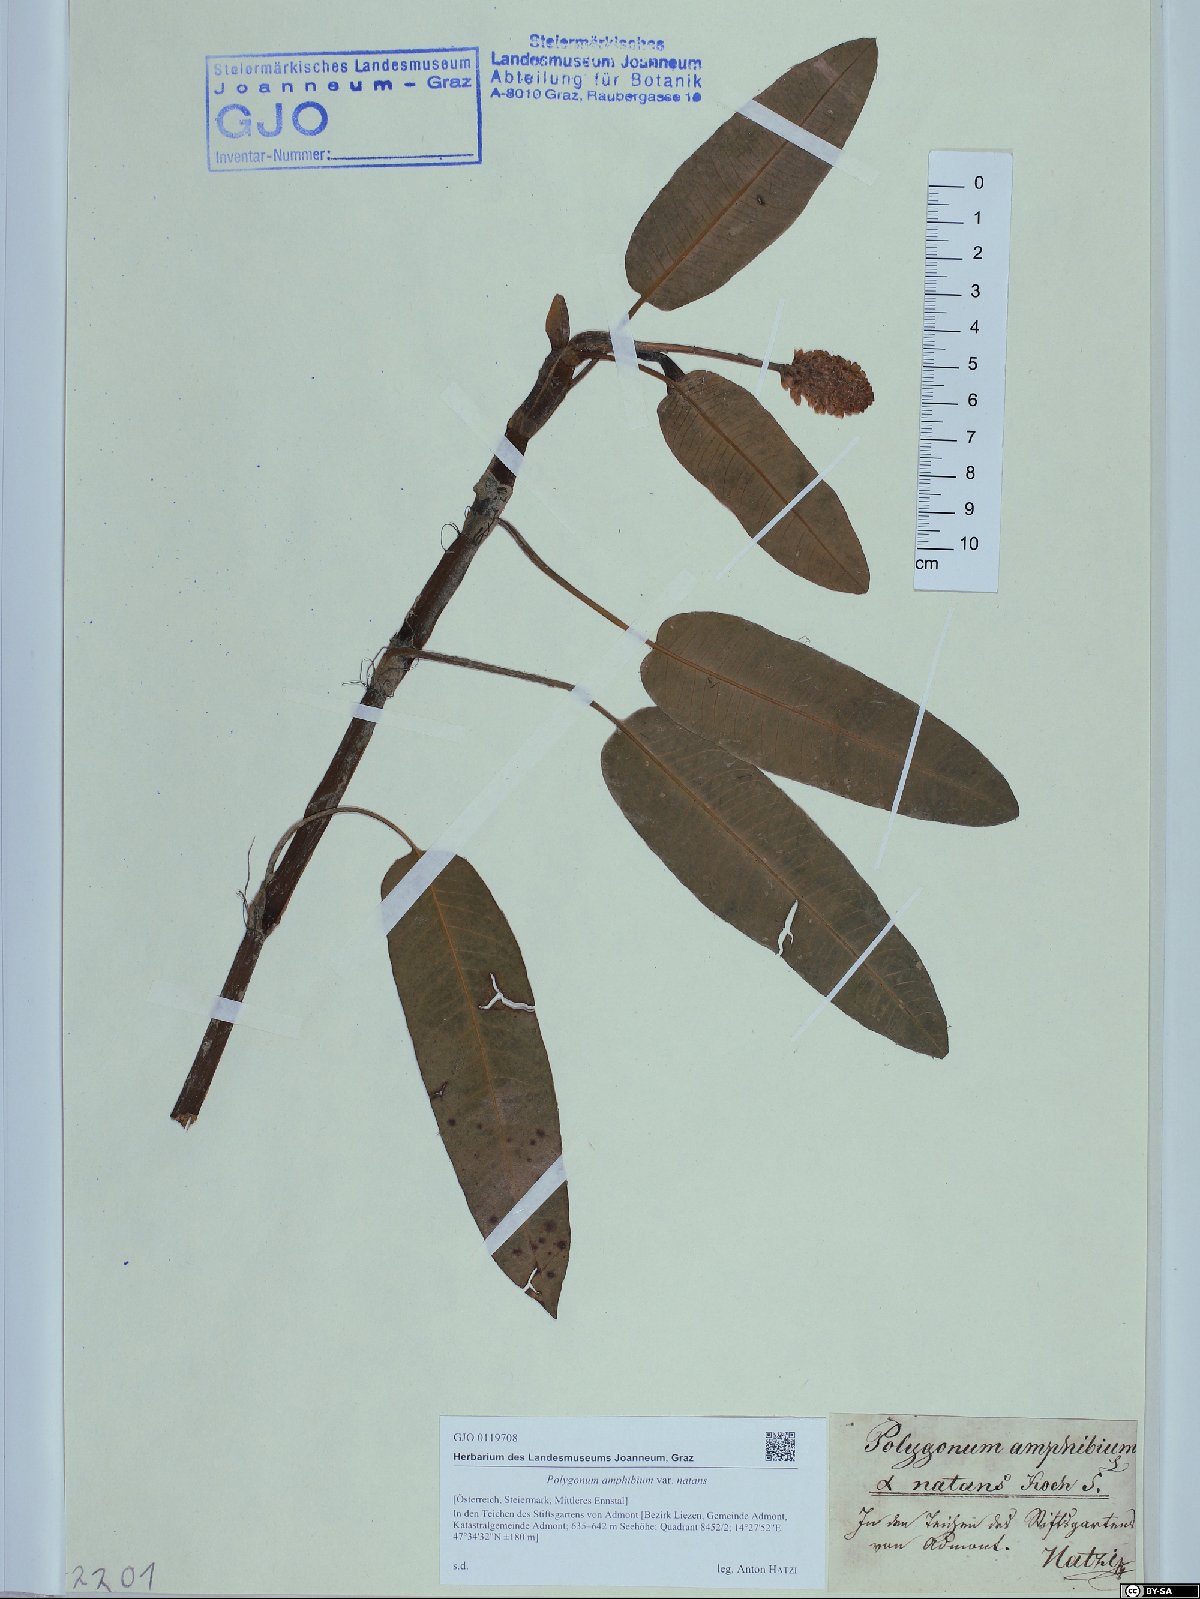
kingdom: Plantae
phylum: Tracheophyta
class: Magnoliopsida
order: Caryophyllales
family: Polygonaceae
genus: Persicaria
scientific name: Persicaria amphibia
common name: Amphibious bistort
